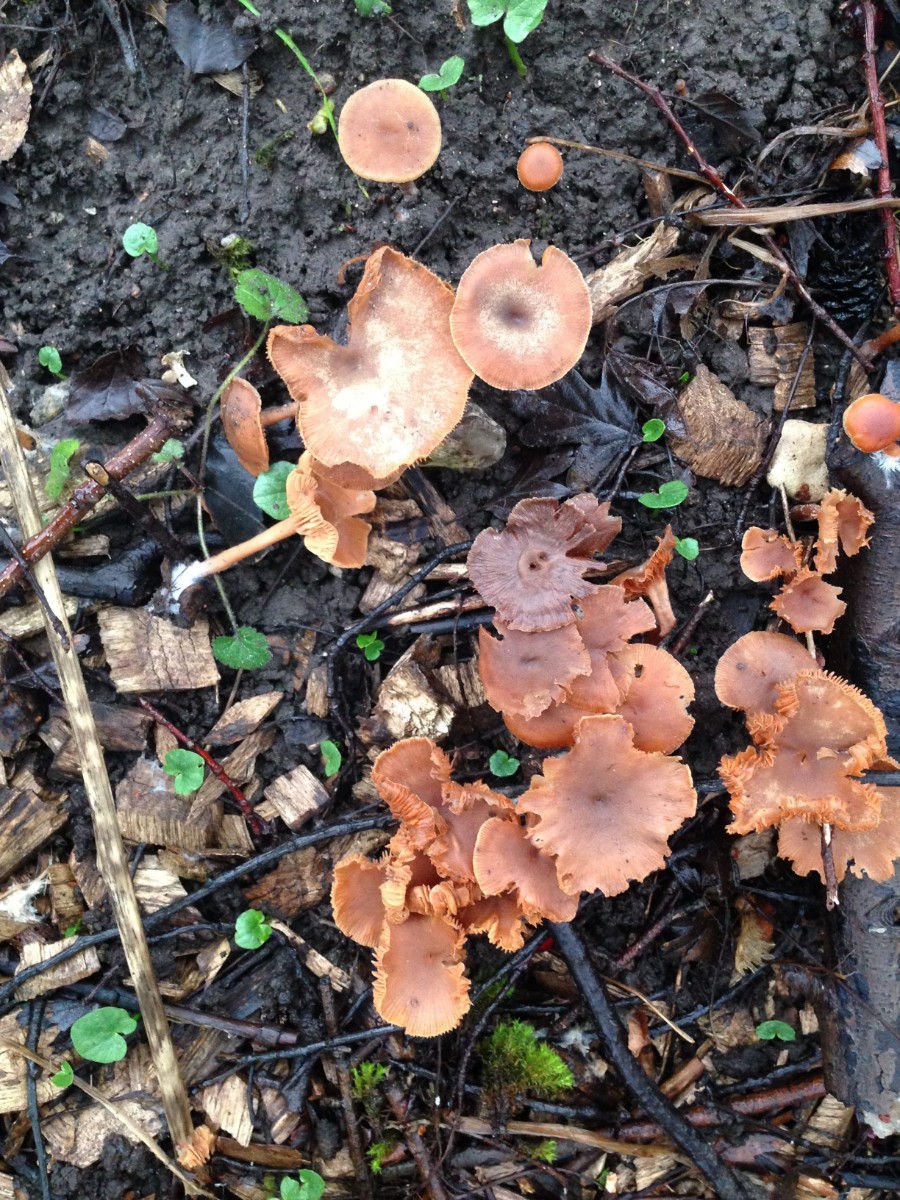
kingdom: Fungi
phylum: Basidiomycota
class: Agaricomycetes
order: Agaricales
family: Tubariaceae
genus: Tubaria
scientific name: Tubaria furfuracea
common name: kliddet fnughat
